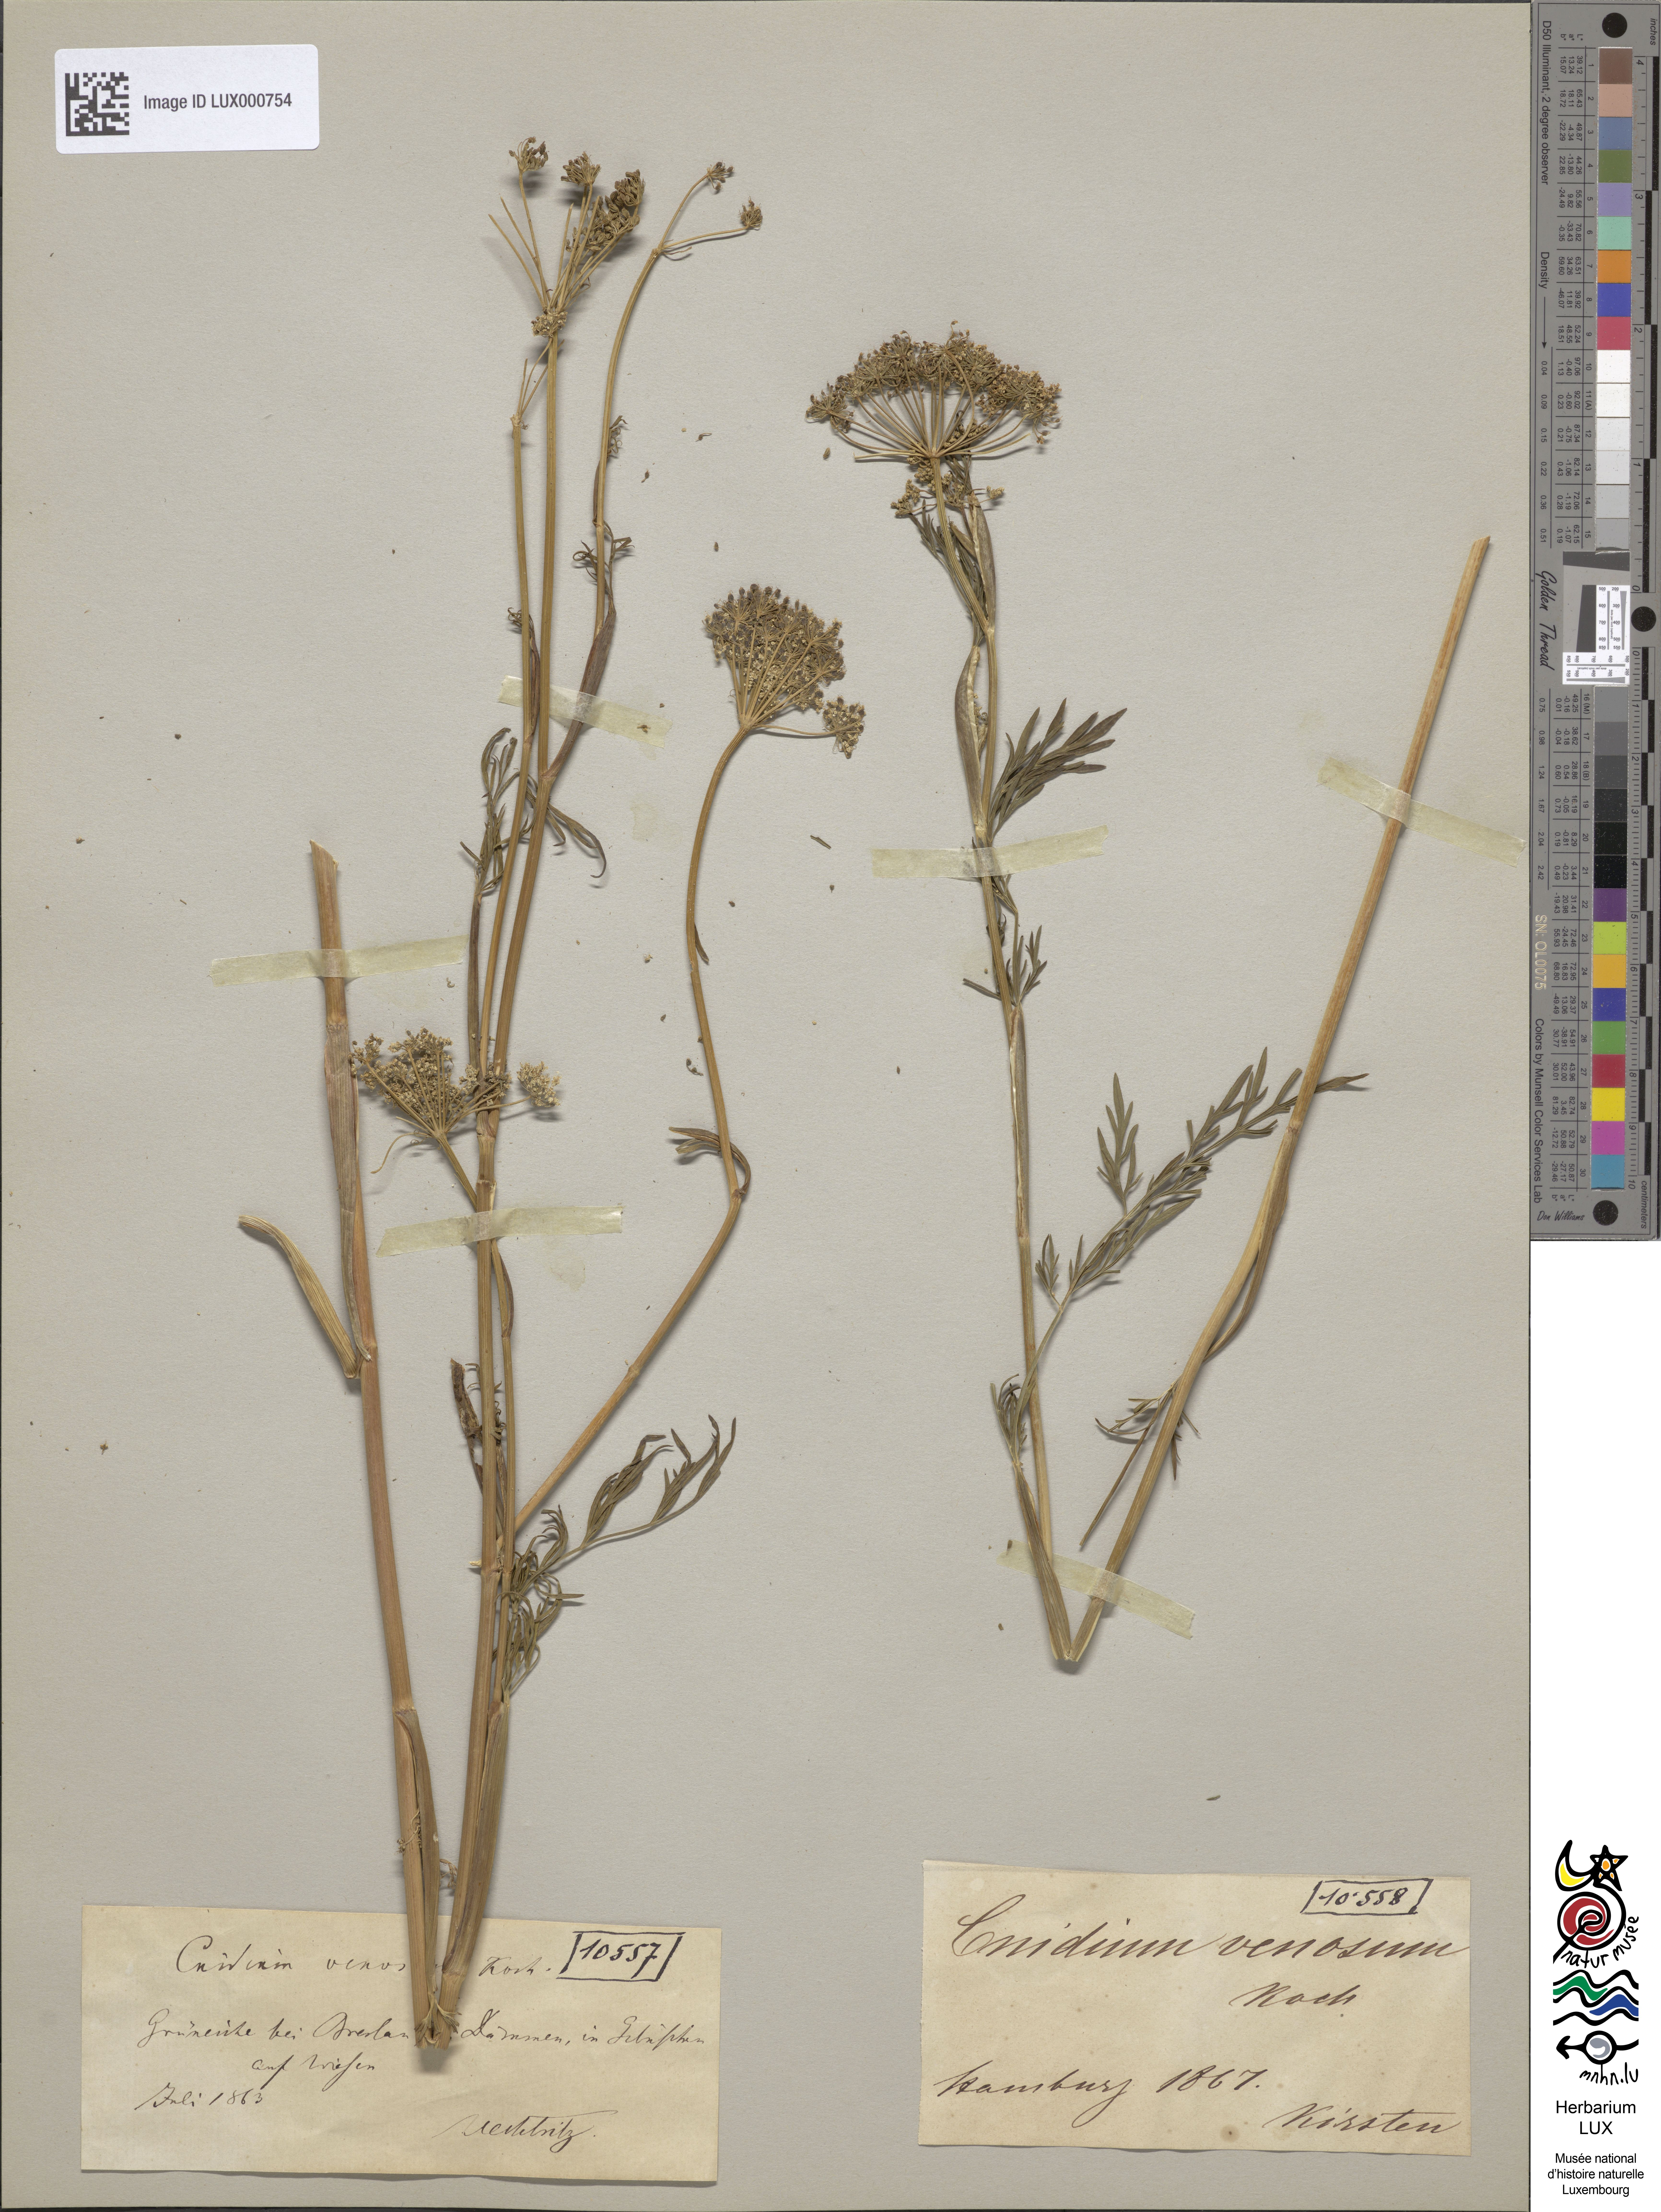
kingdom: Plantae
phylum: Tracheophyta
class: Magnoliopsida
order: Apiales
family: Apiaceae
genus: Kadenia
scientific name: Kadenia dubia
